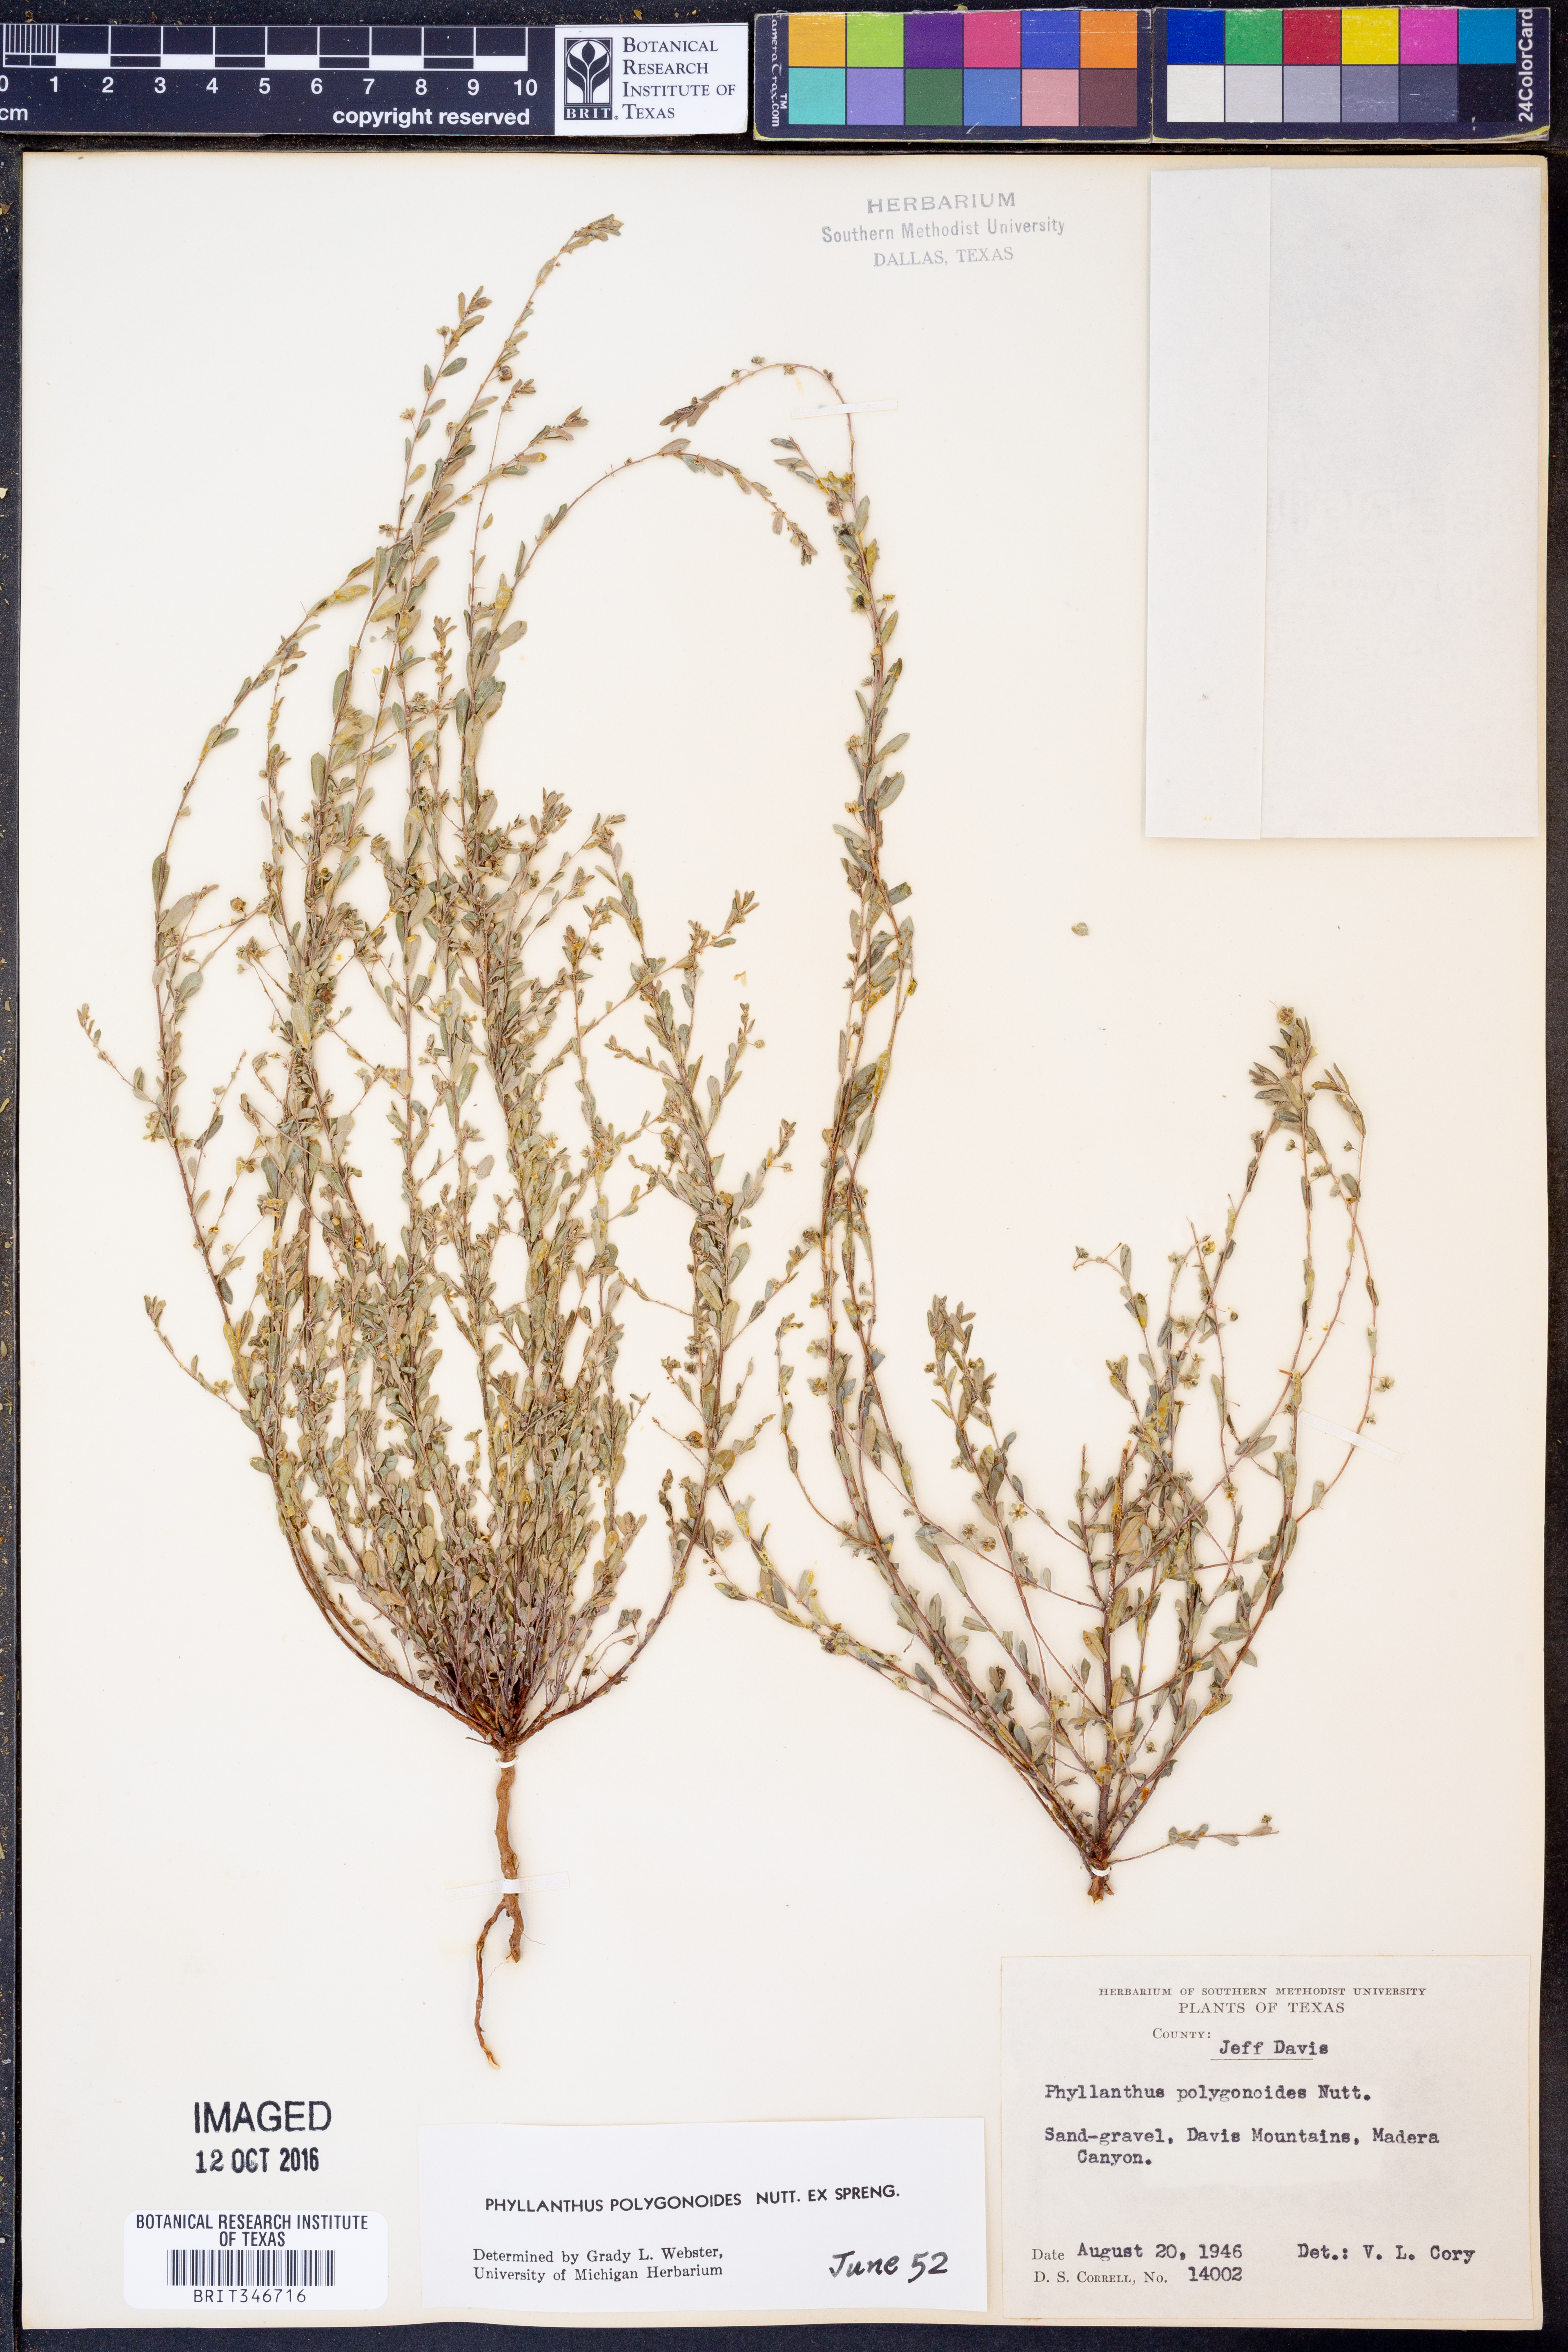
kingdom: Plantae
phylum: Tracheophyta
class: Magnoliopsida
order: Malpighiales
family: Phyllanthaceae
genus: Phyllanthus
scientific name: Phyllanthus polygonoides
